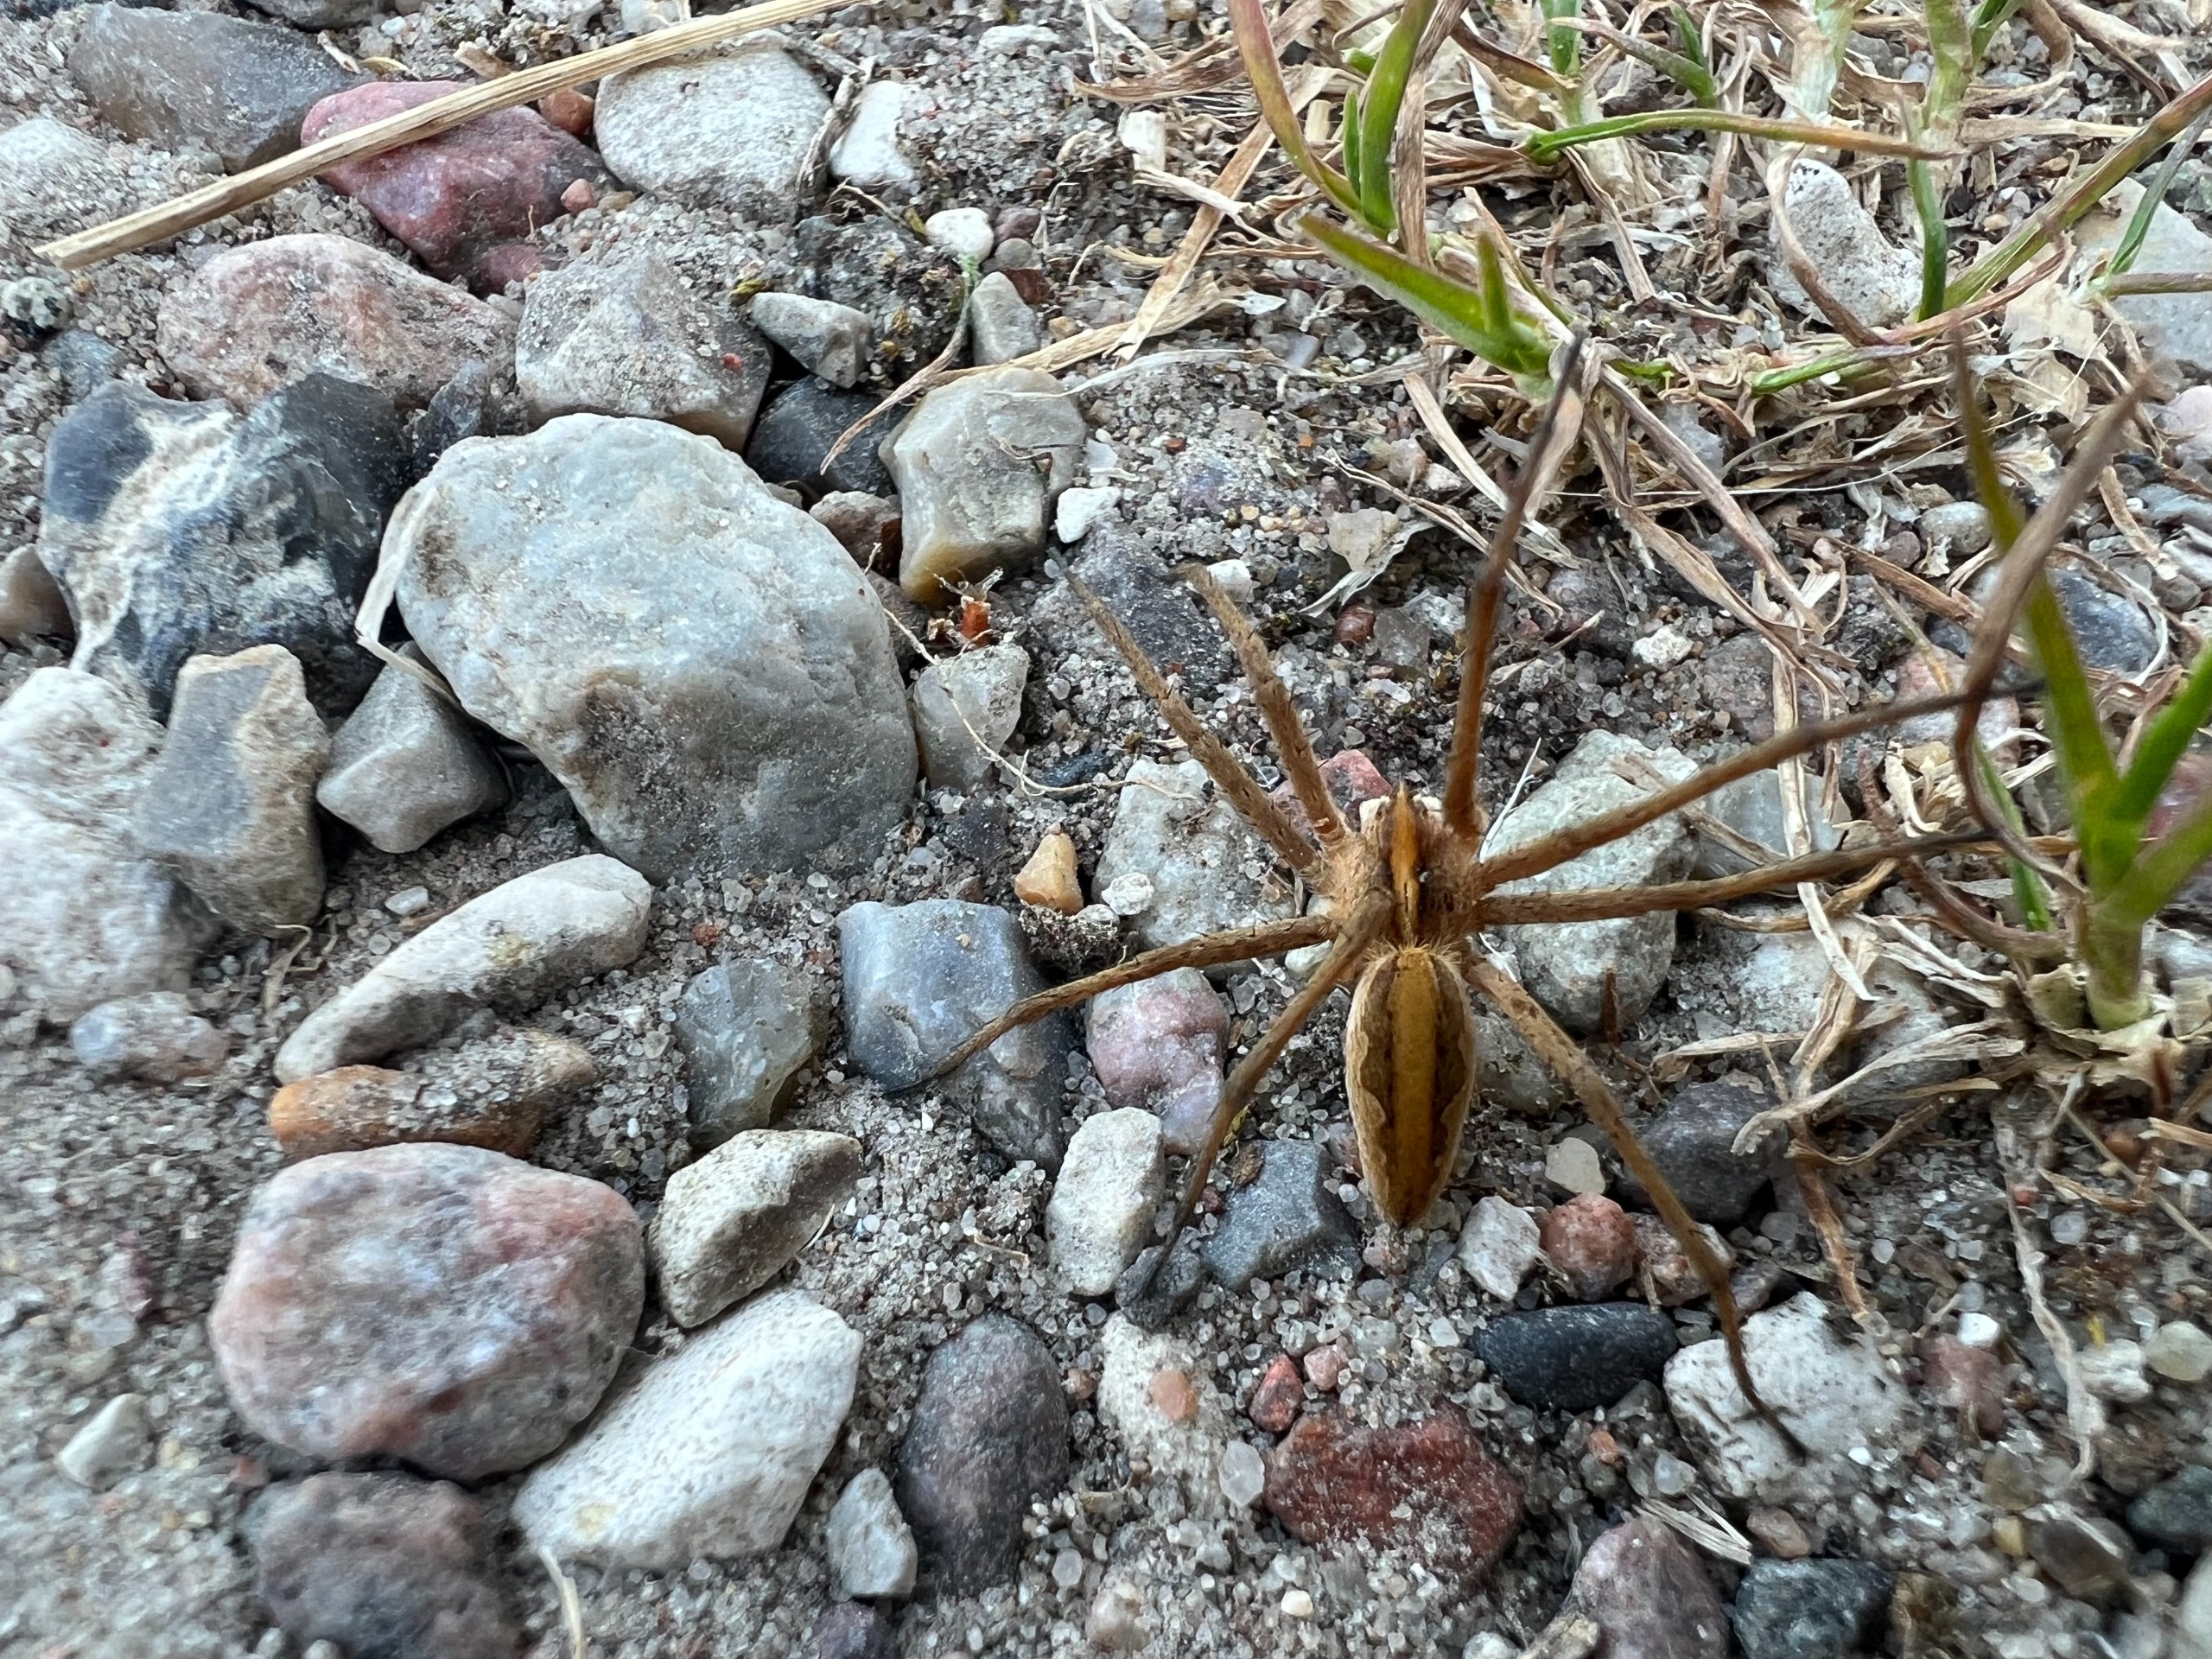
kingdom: Animalia
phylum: Arthropoda
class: Arachnida
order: Araneae
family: Pisauridae
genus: Pisaura
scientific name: Pisaura mirabilis
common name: Almindelig rovedderkop
